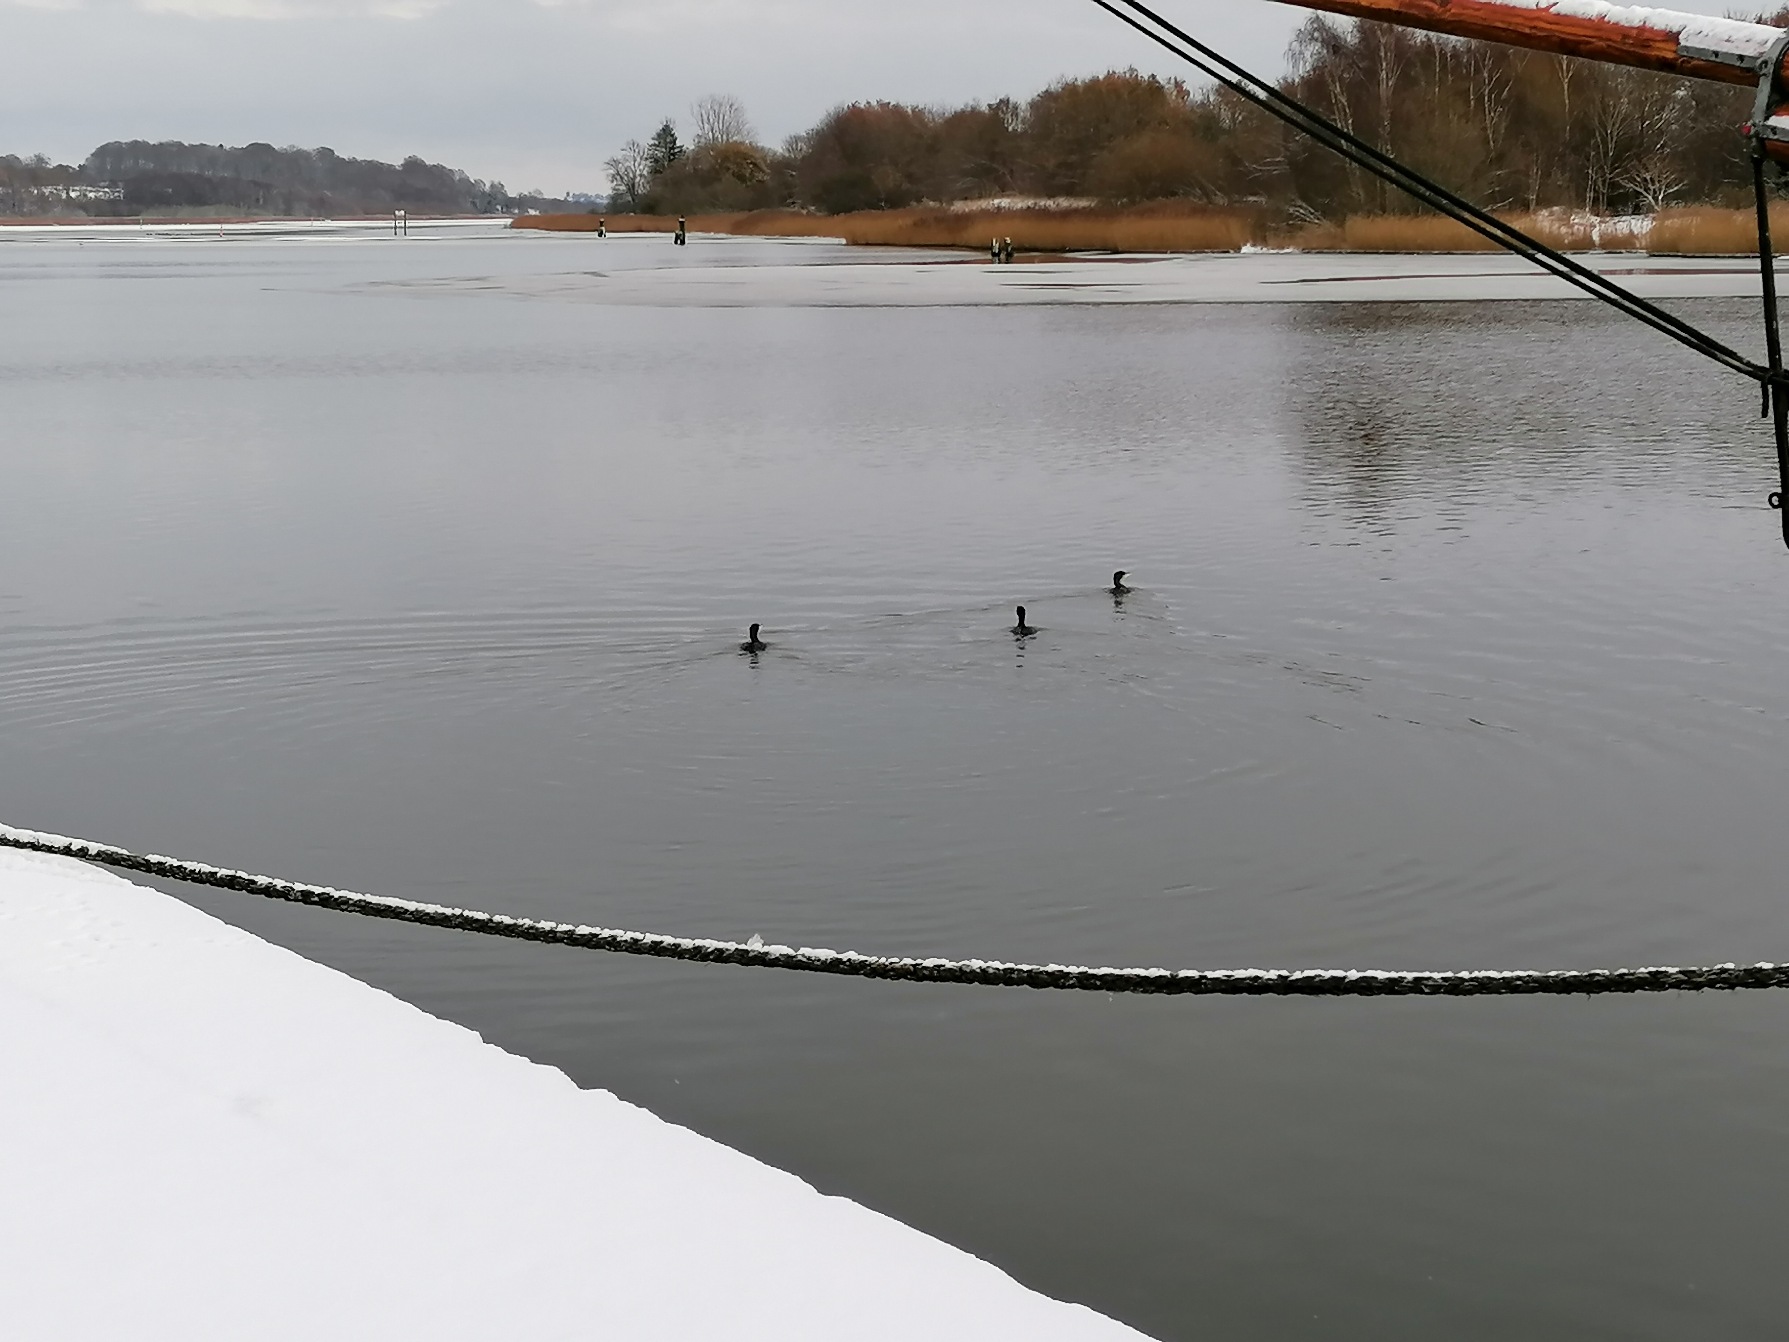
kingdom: Animalia
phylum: Chordata
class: Aves
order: Suliformes
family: Phalacrocoracidae
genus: Phalacrocorax
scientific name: Phalacrocorax carbo
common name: Skarv
